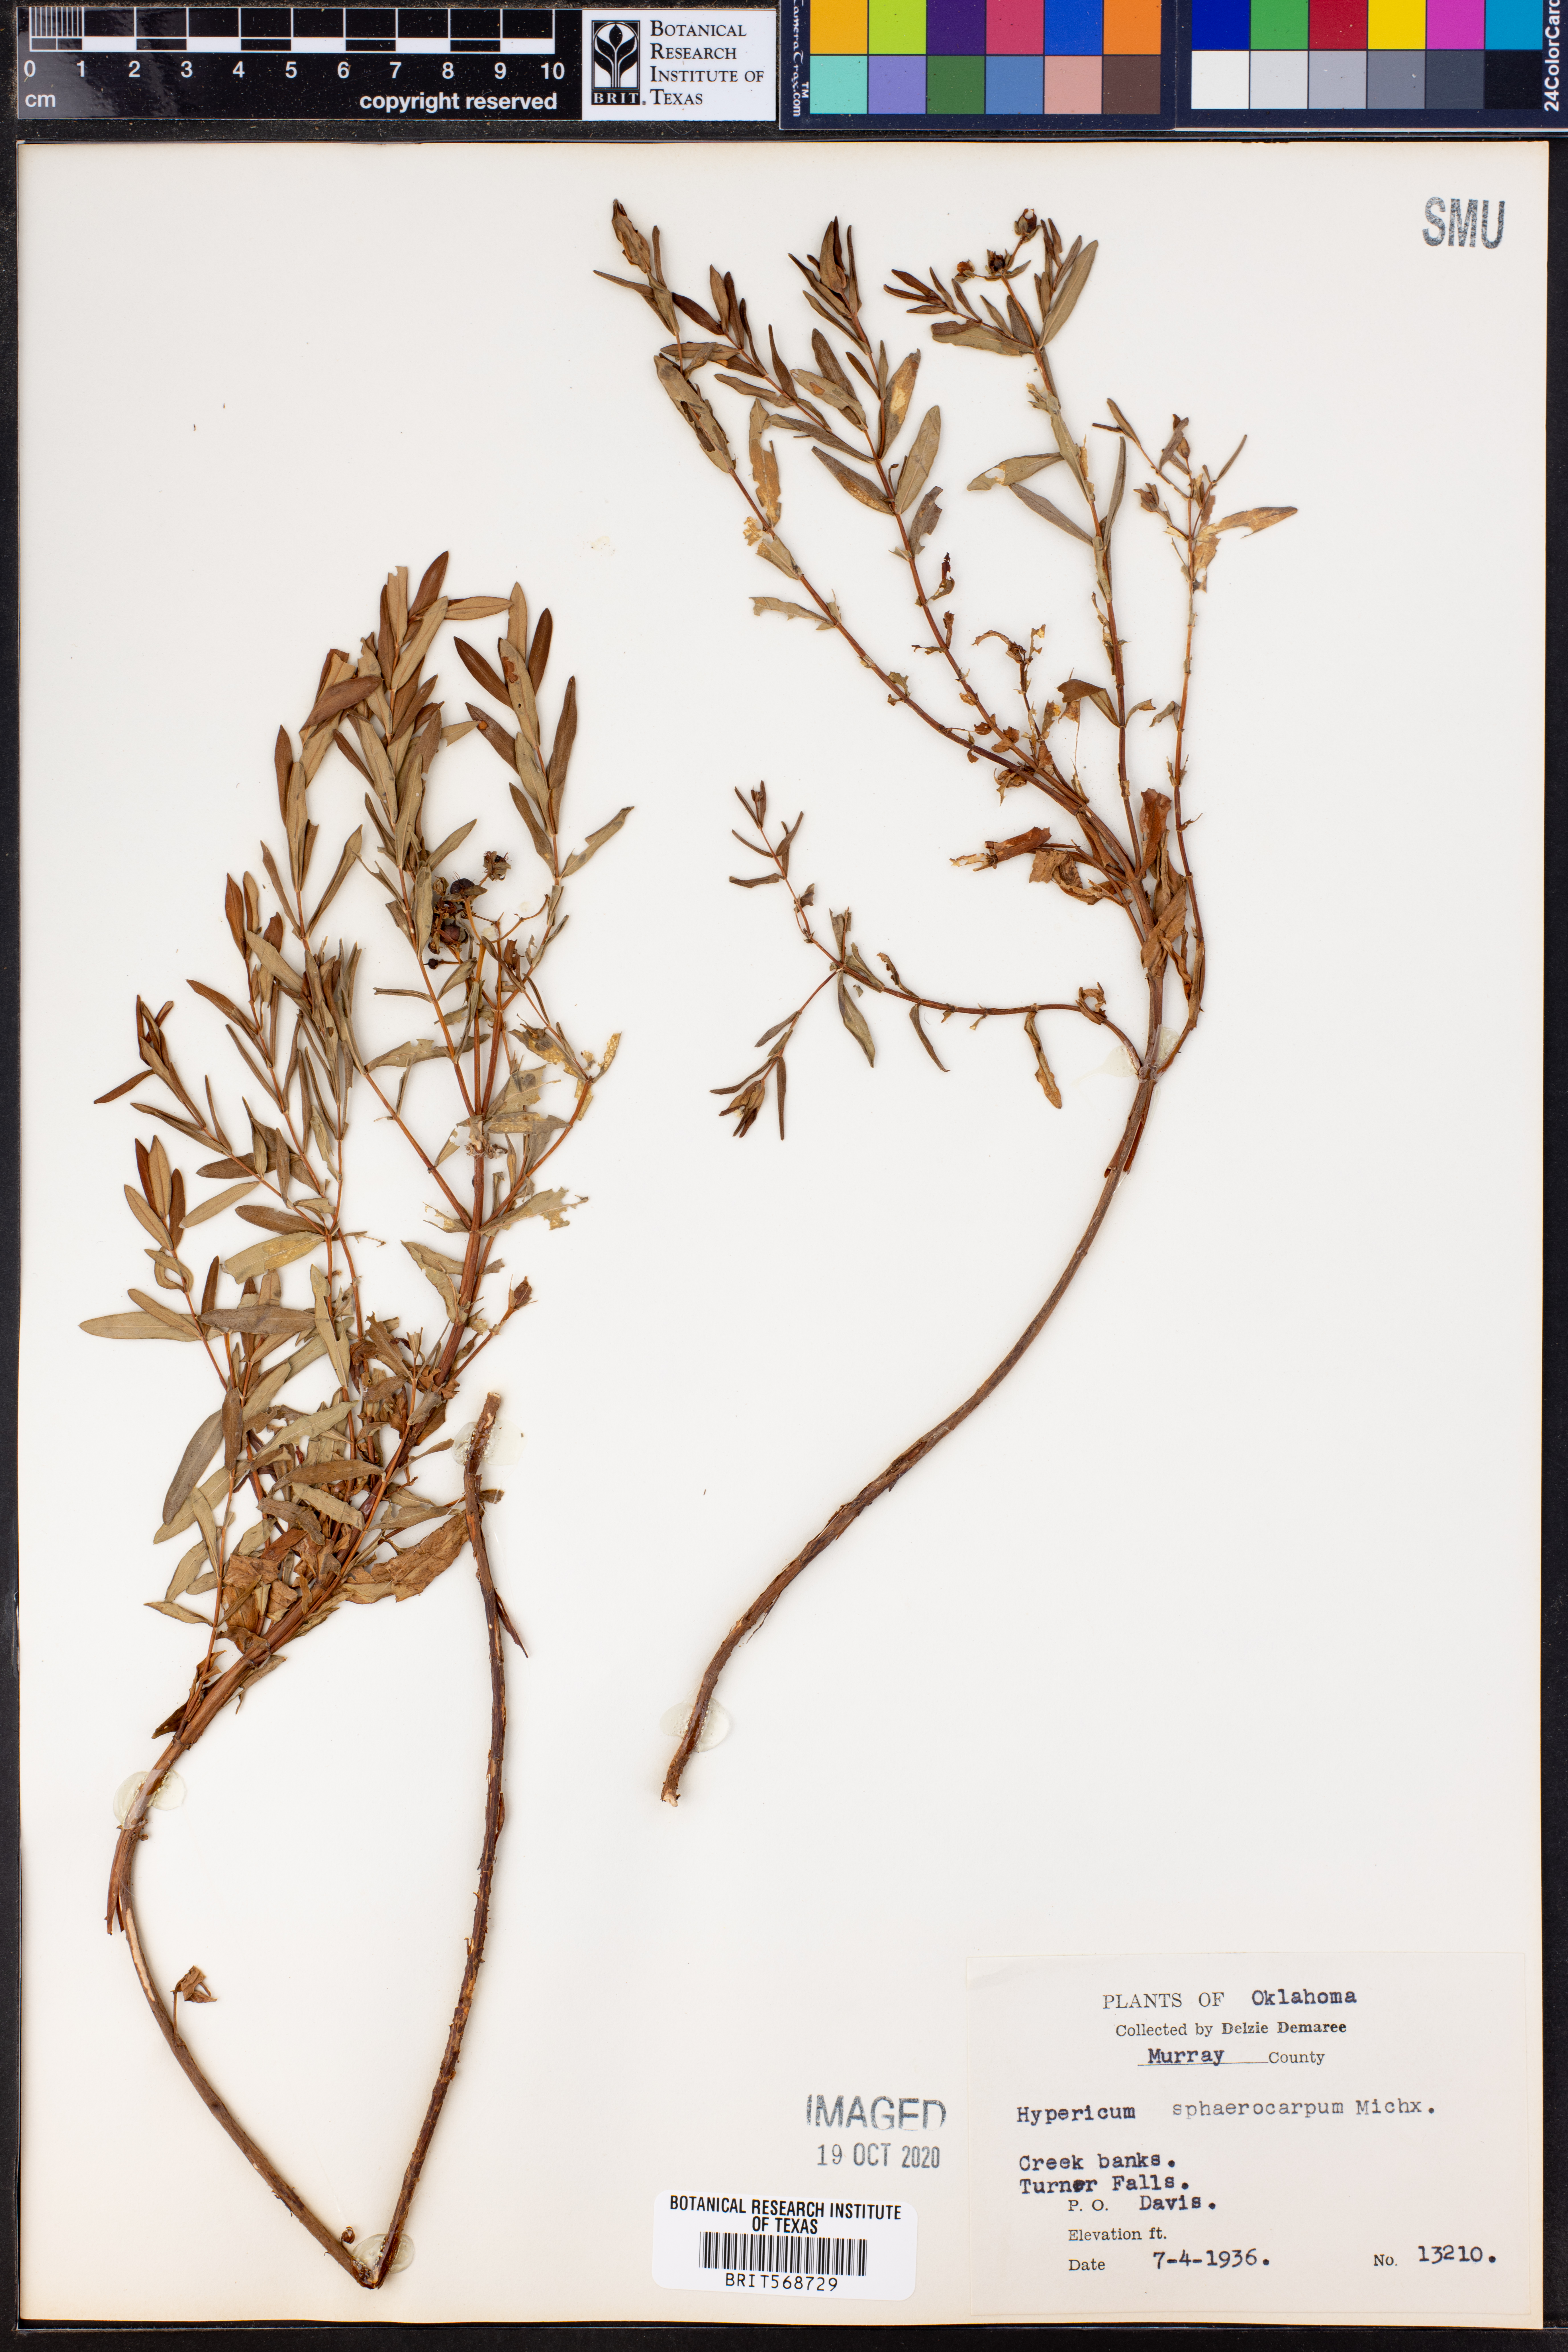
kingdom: Plantae
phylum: Tracheophyta
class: Magnoliopsida
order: Malpighiales
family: Hypericaceae
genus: Hypericum
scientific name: Hypericum sphaerocarpum
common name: Round-fruited st. john's-wort
